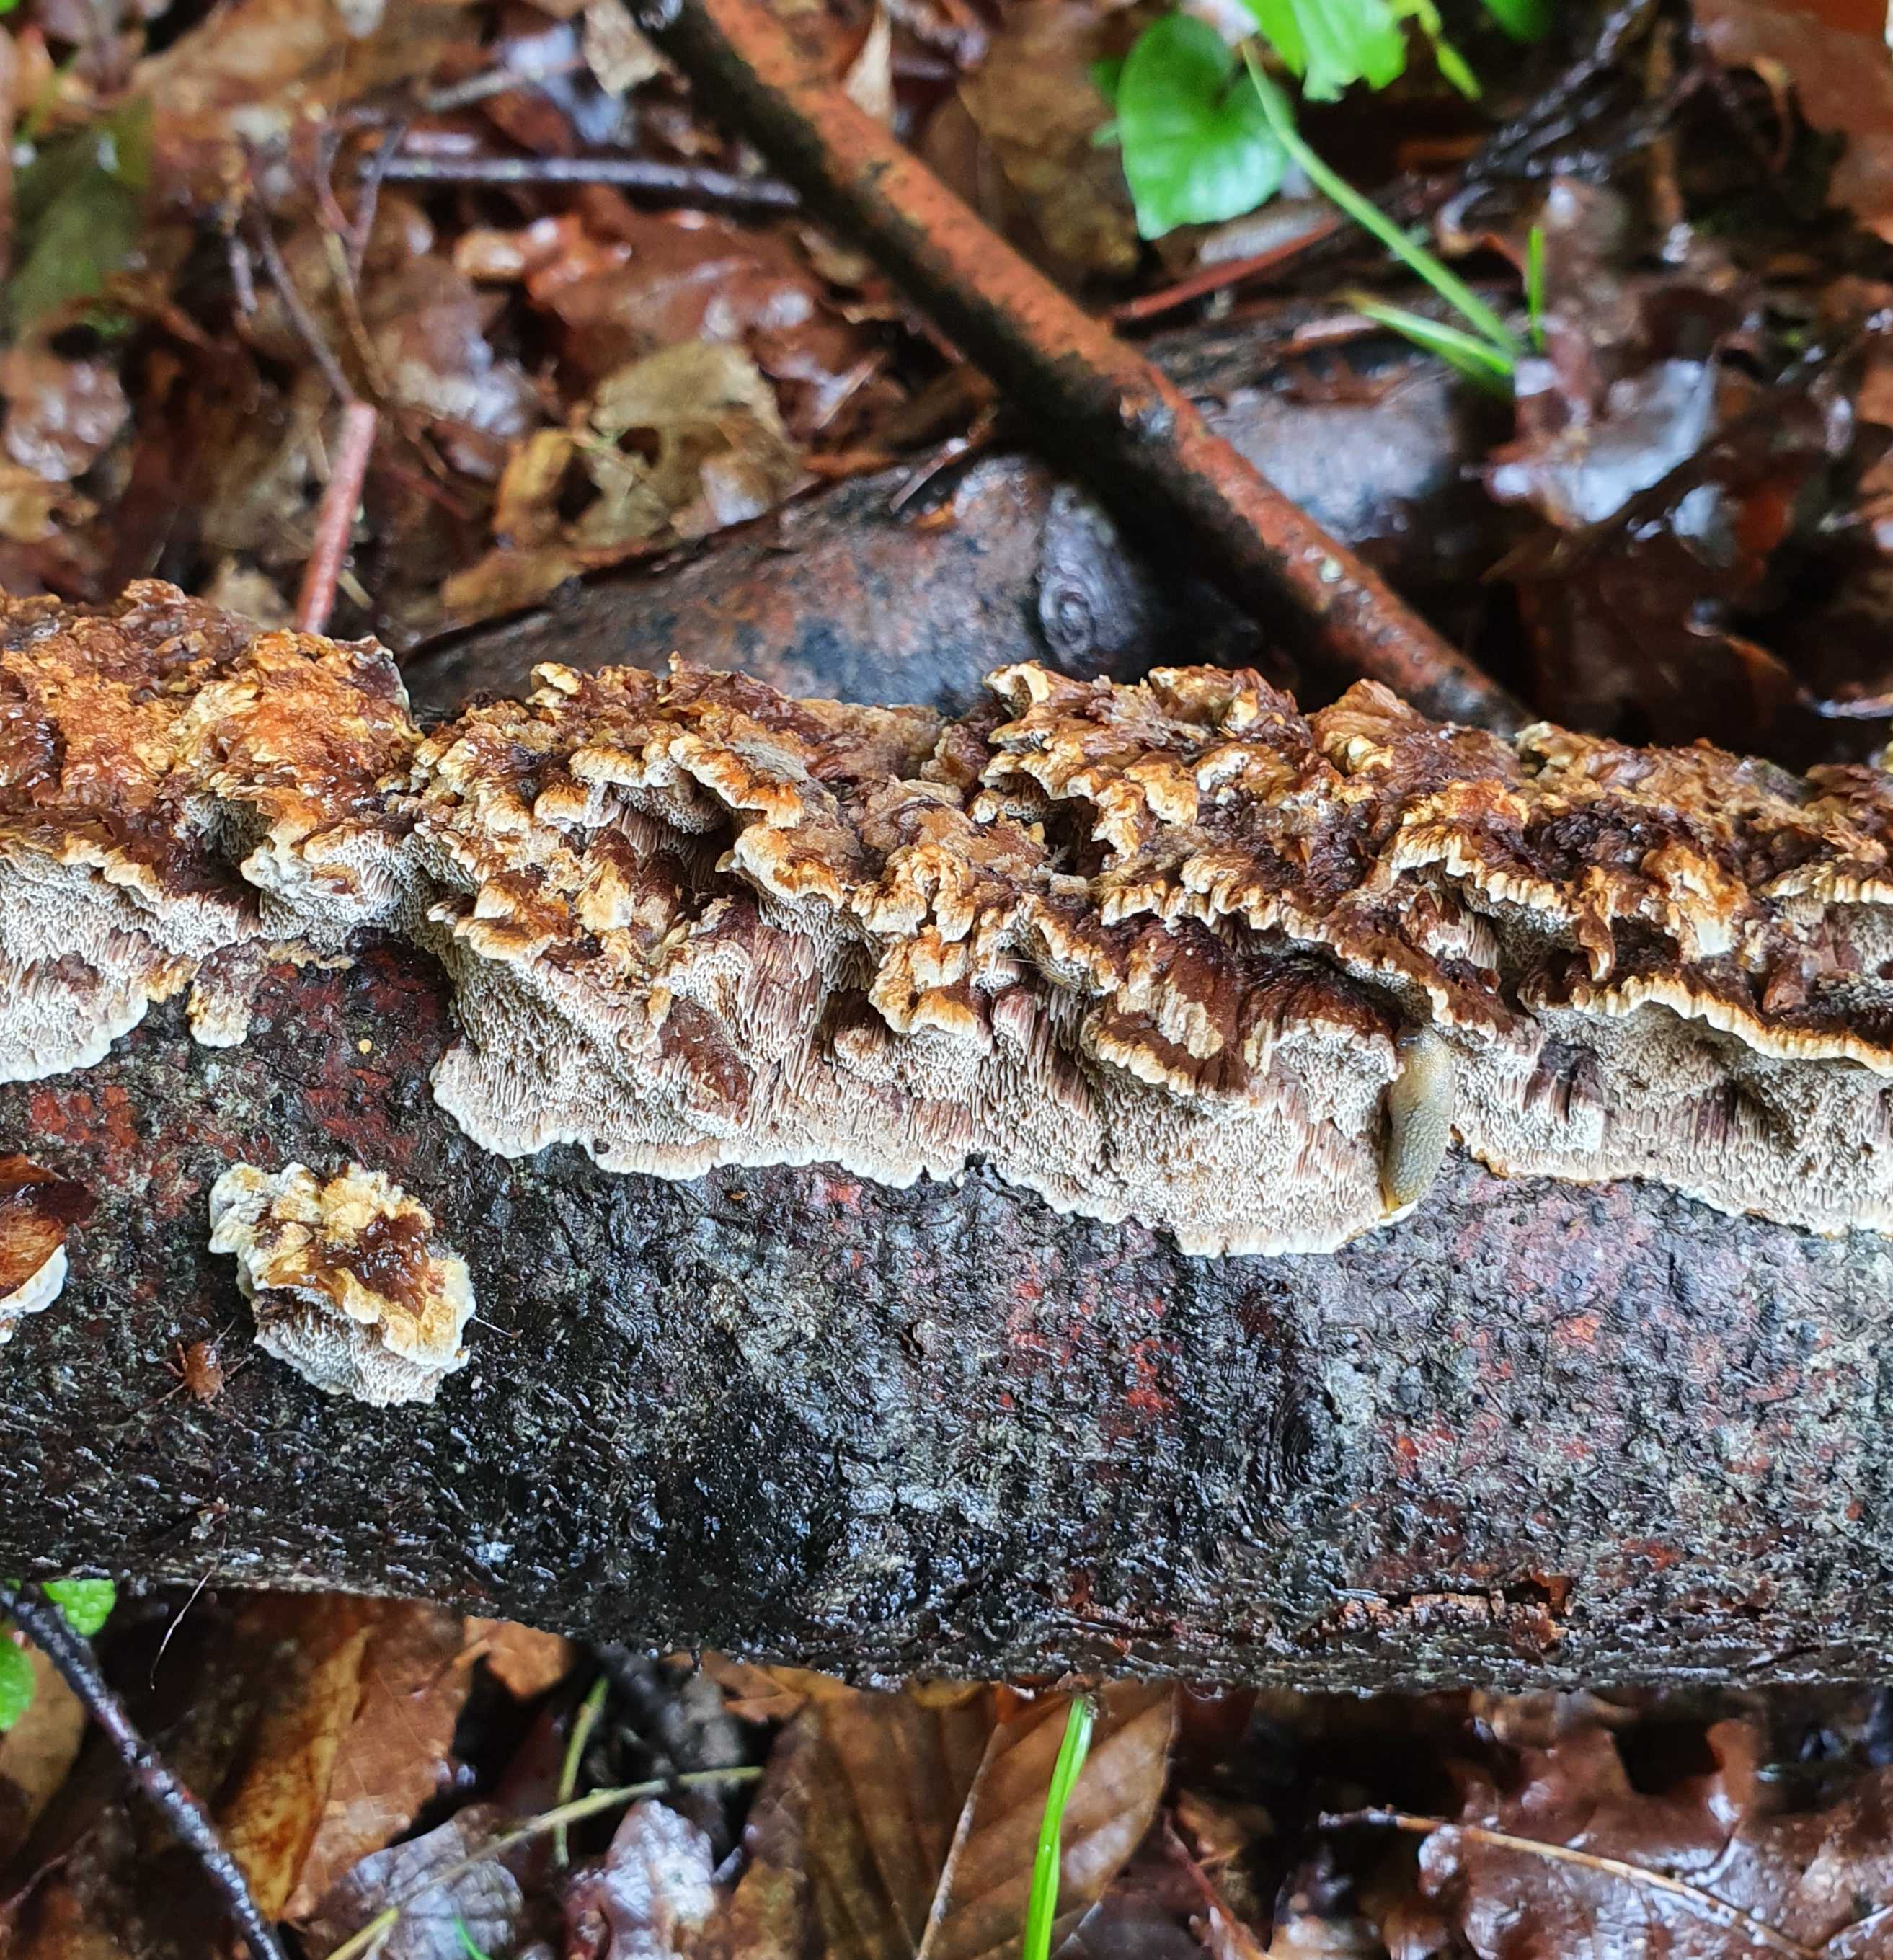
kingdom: Fungi
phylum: Basidiomycota
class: Agaricomycetes
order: Hymenochaetales
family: Hymenochaetaceae
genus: Mensularia
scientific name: Mensularia nodulosa
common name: bøge-spejlporesvamp
